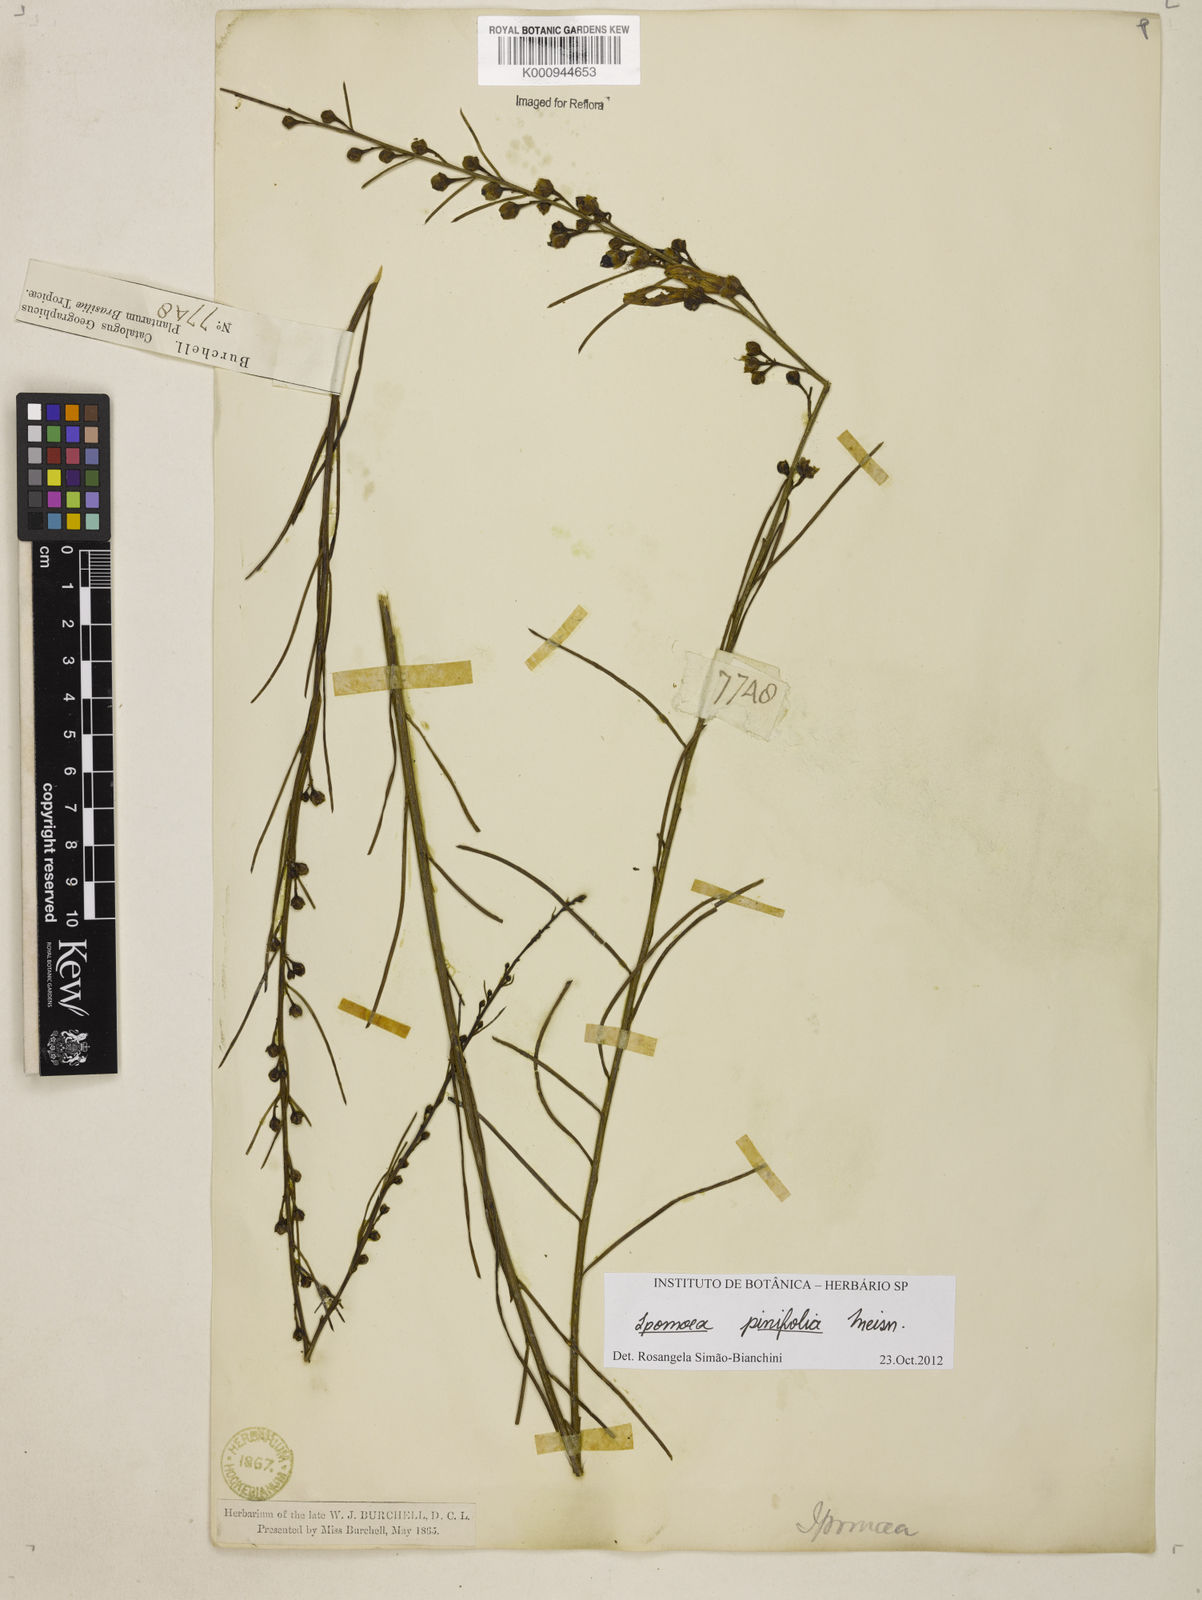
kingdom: Plantae
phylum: Tracheophyta
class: Magnoliopsida
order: Solanales
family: Convolvulaceae
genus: Ipomoea
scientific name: Ipomoea pinifolia
